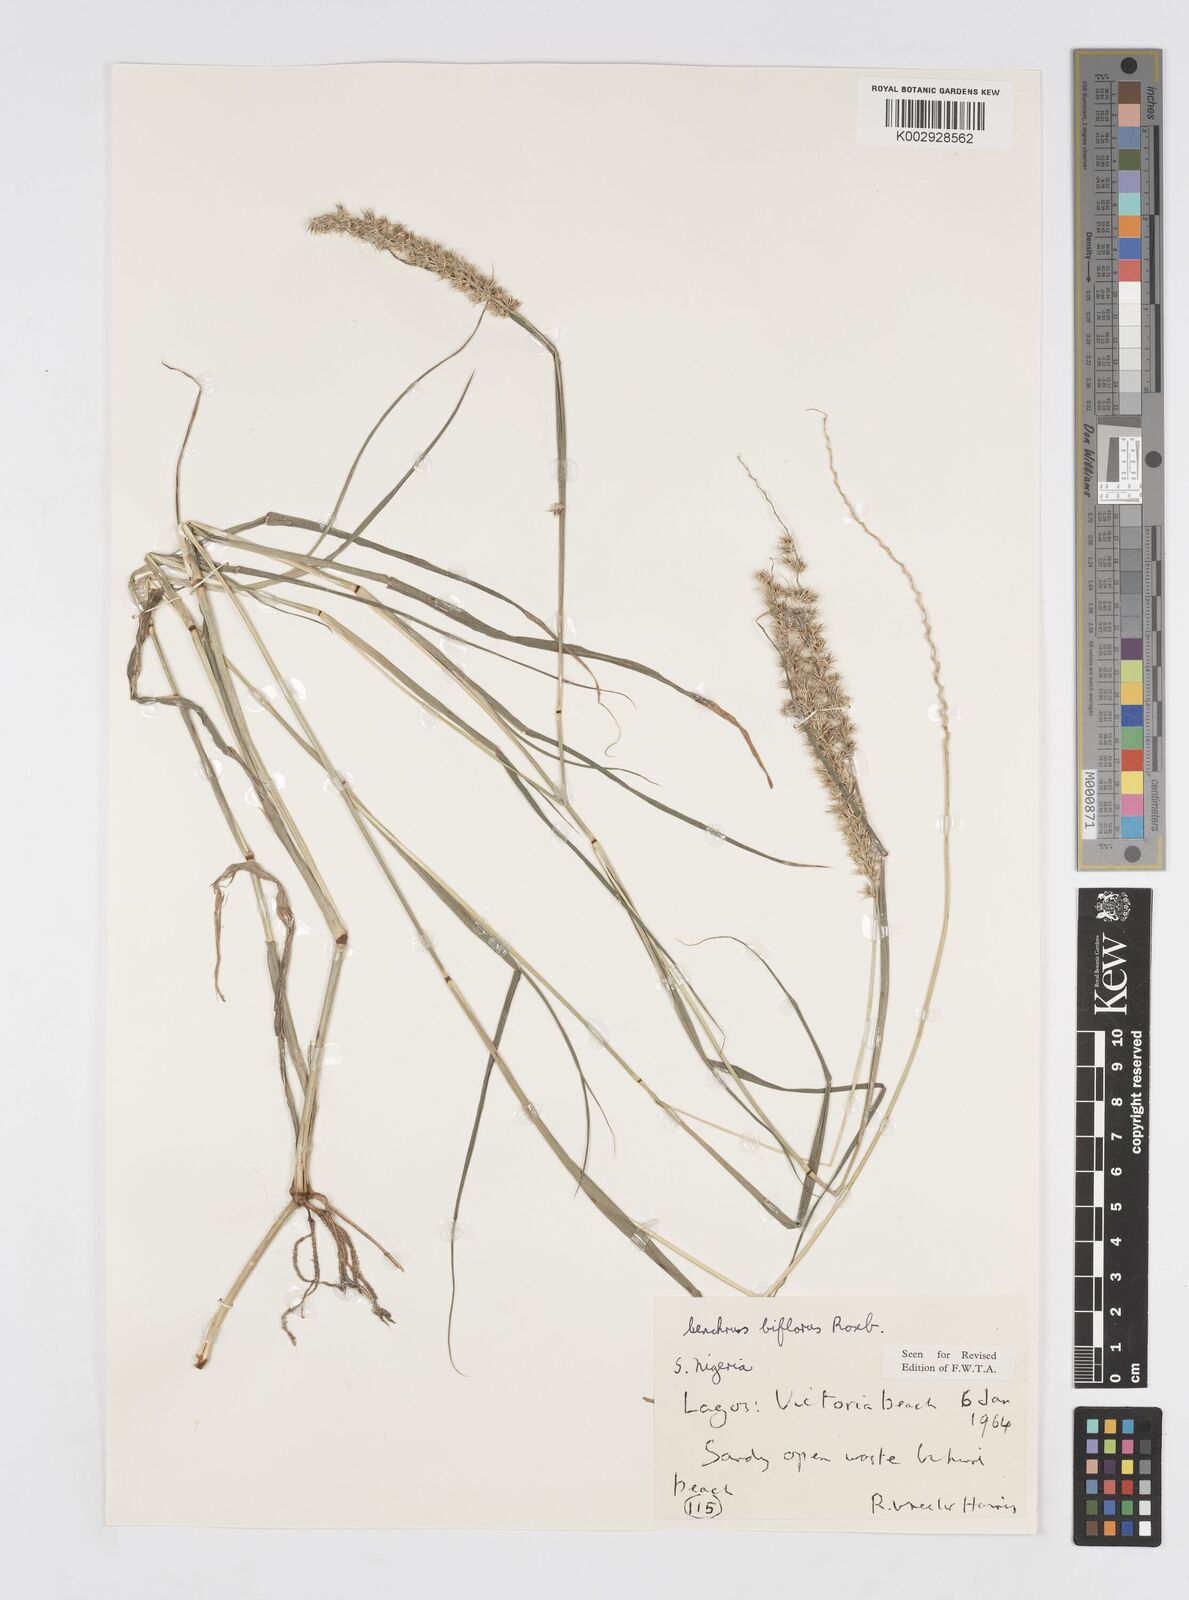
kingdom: Plantae
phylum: Tracheophyta
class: Liliopsida
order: Poales
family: Poaceae
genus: Cenchrus
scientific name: Cenchrus biflorus
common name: Indian sandbur
